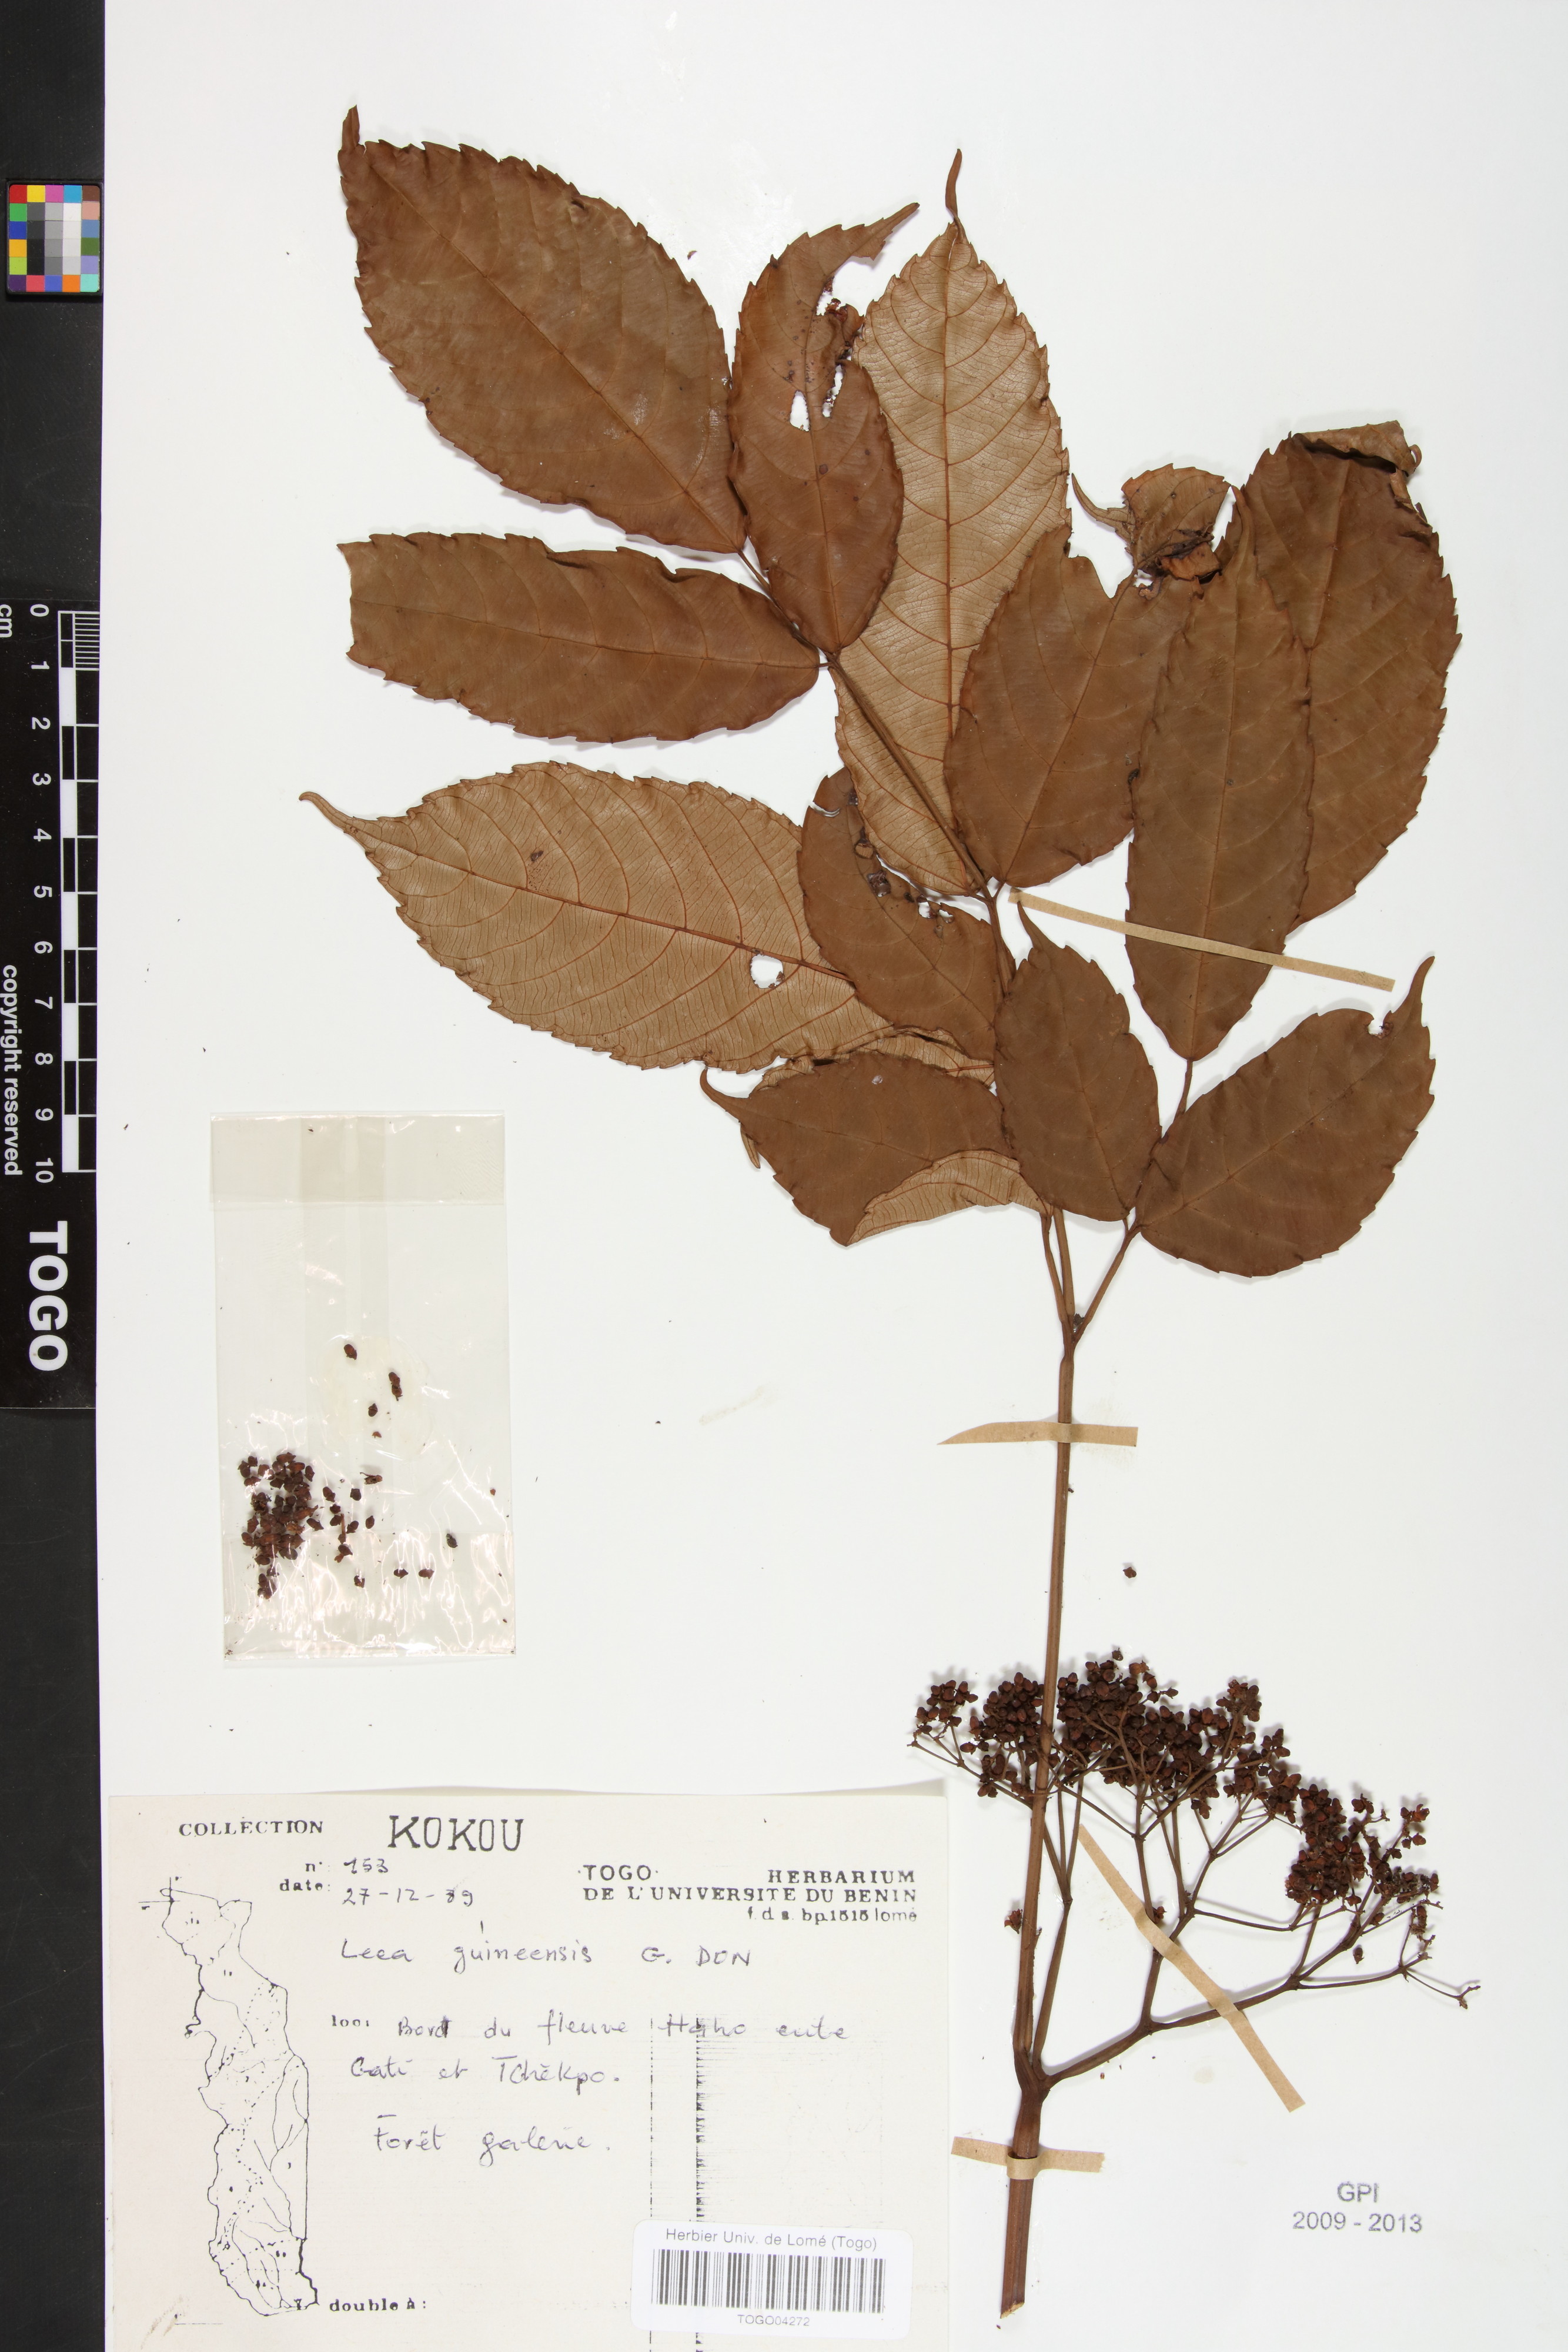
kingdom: Plantae
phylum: Tracheophyta
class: Magnoliopsida
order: Vitales
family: Vitaceae
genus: Leea
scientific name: Leea guineensis
